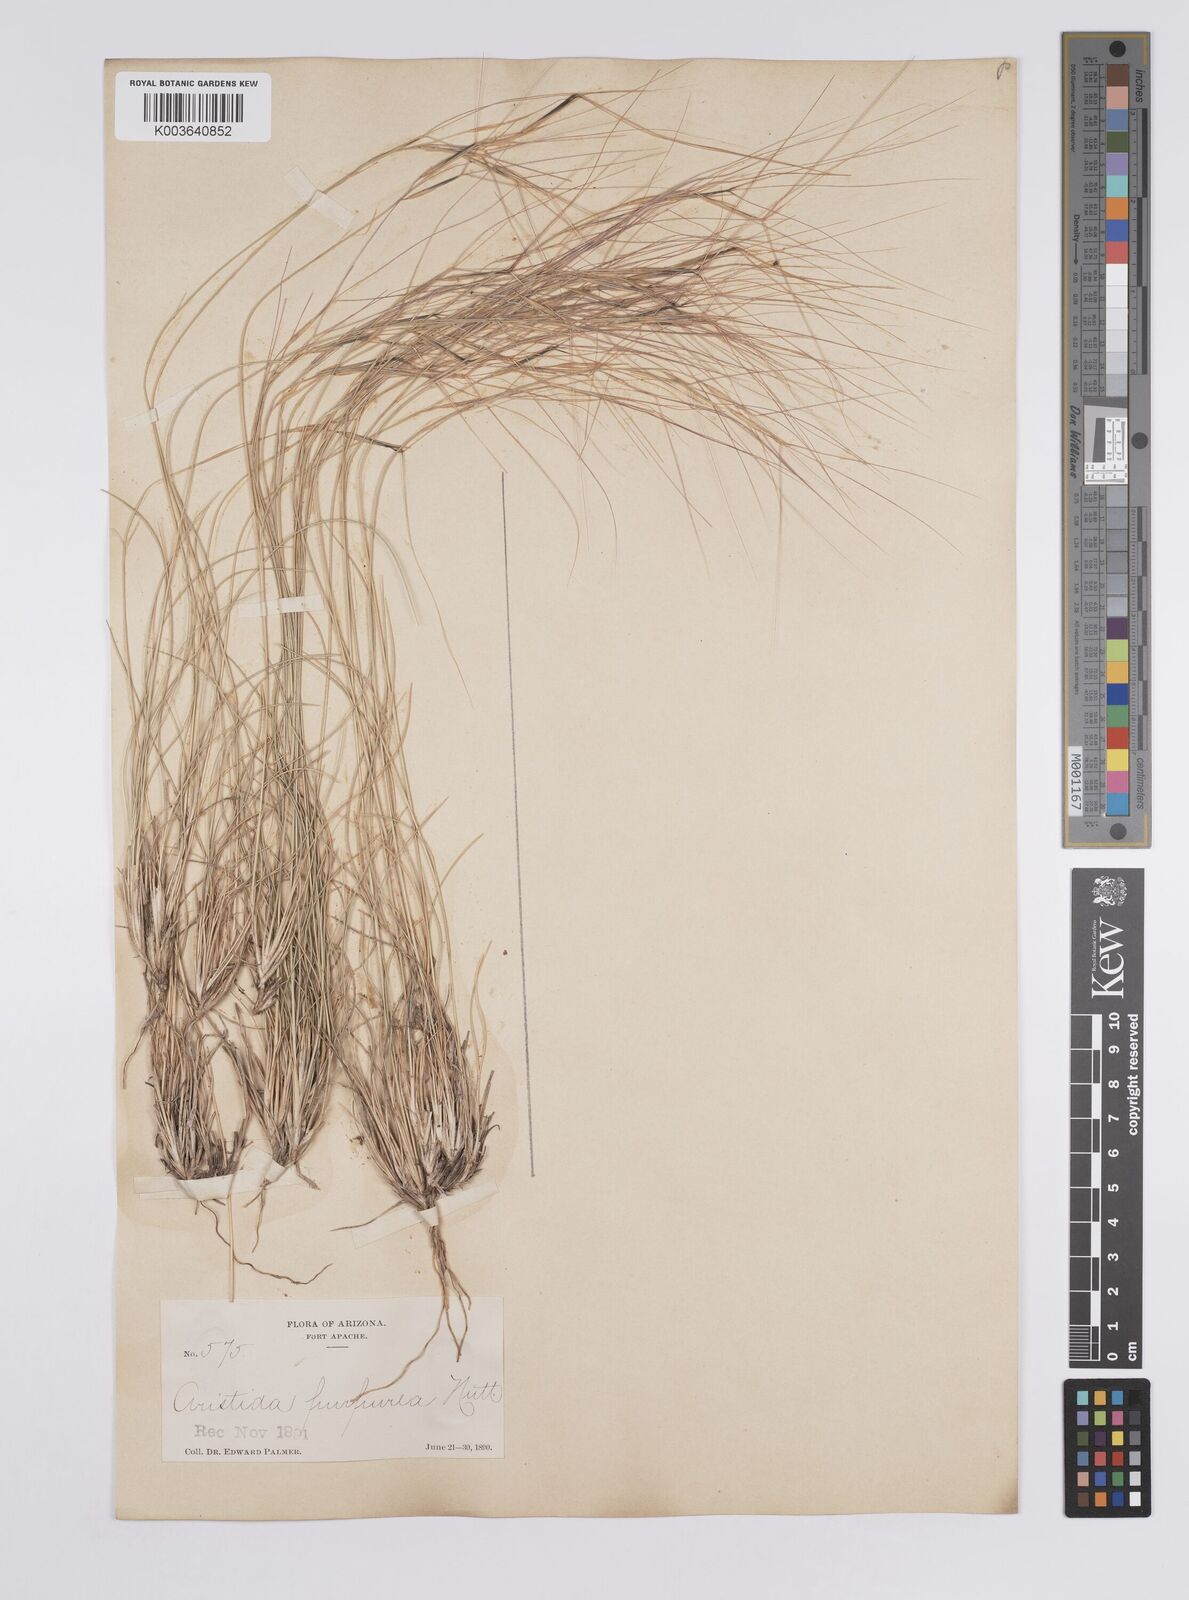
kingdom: Plantae
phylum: Tracheophyta
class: Liliopsida
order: Poales
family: Poaceae
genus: Aristida
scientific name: Aristida purpurea
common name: Purple threeawn
